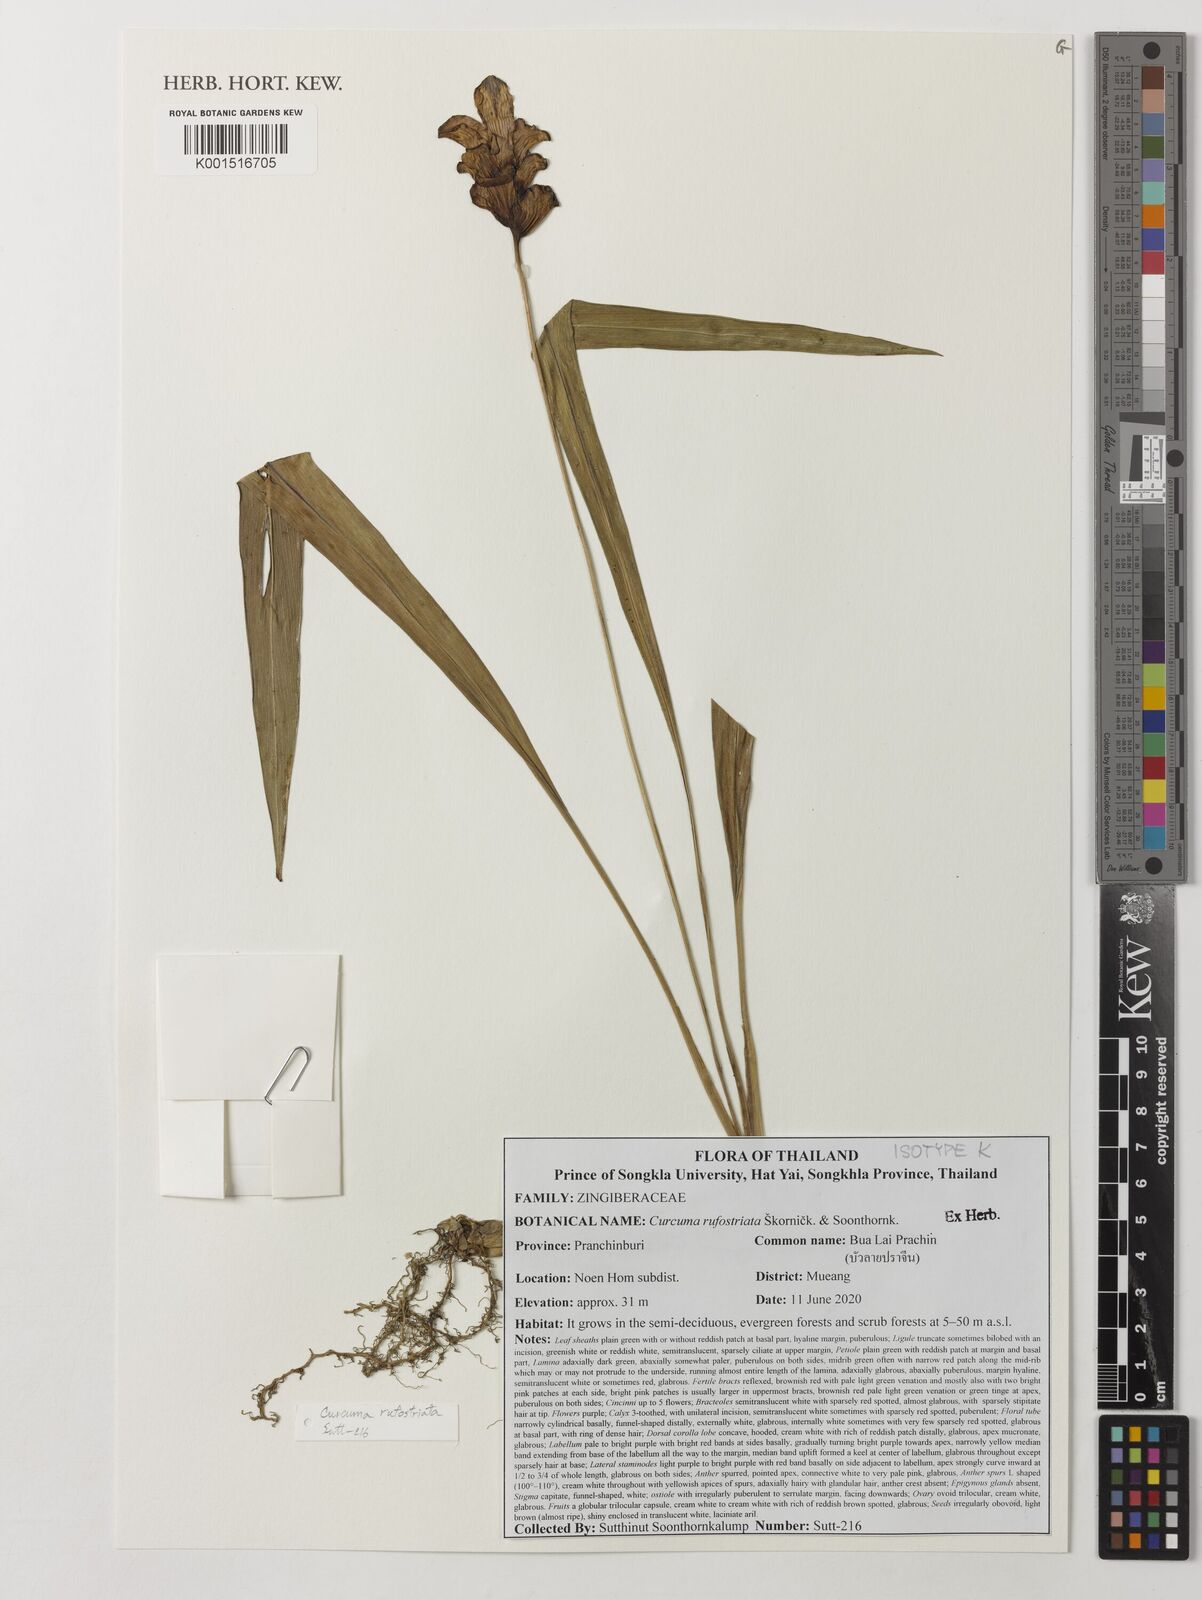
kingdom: Plantae
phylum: Tracheophyta
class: Liliopsida
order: Zingiberales
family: Zingiberaceae
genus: Curcuma
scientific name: Curcuma
